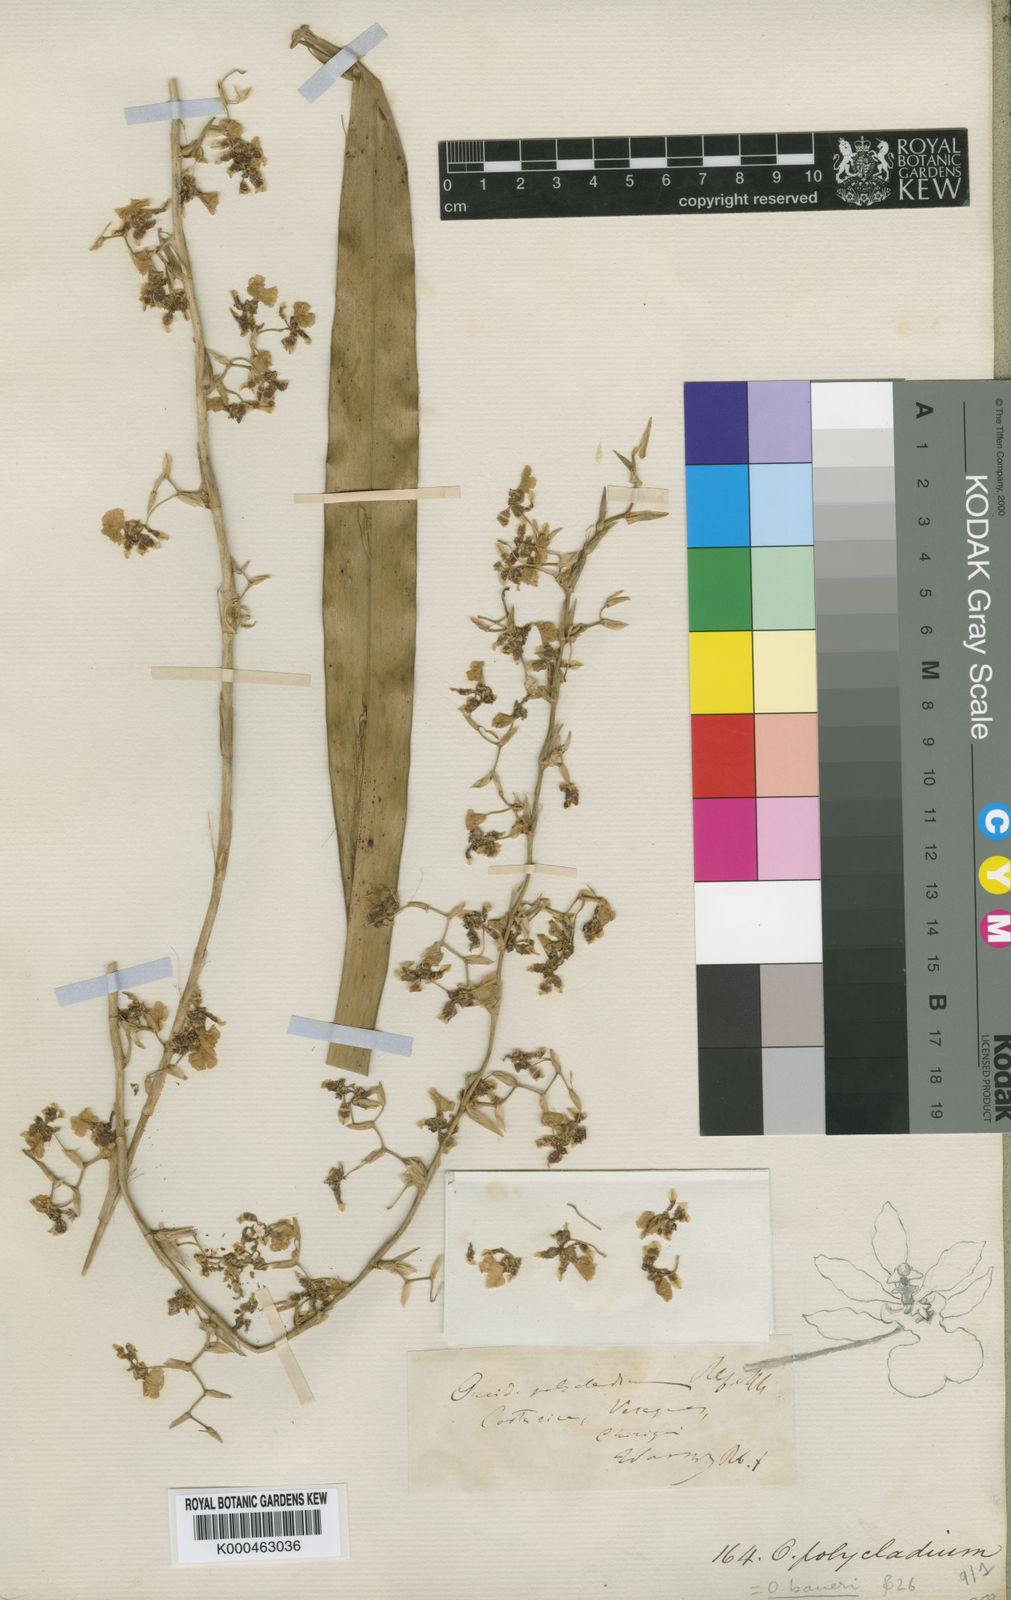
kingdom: Plantae
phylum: Tracheophyta
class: Liliopsida
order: Asparagales
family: Orchidaceae
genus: Oncidium
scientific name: Oncidium baueri
